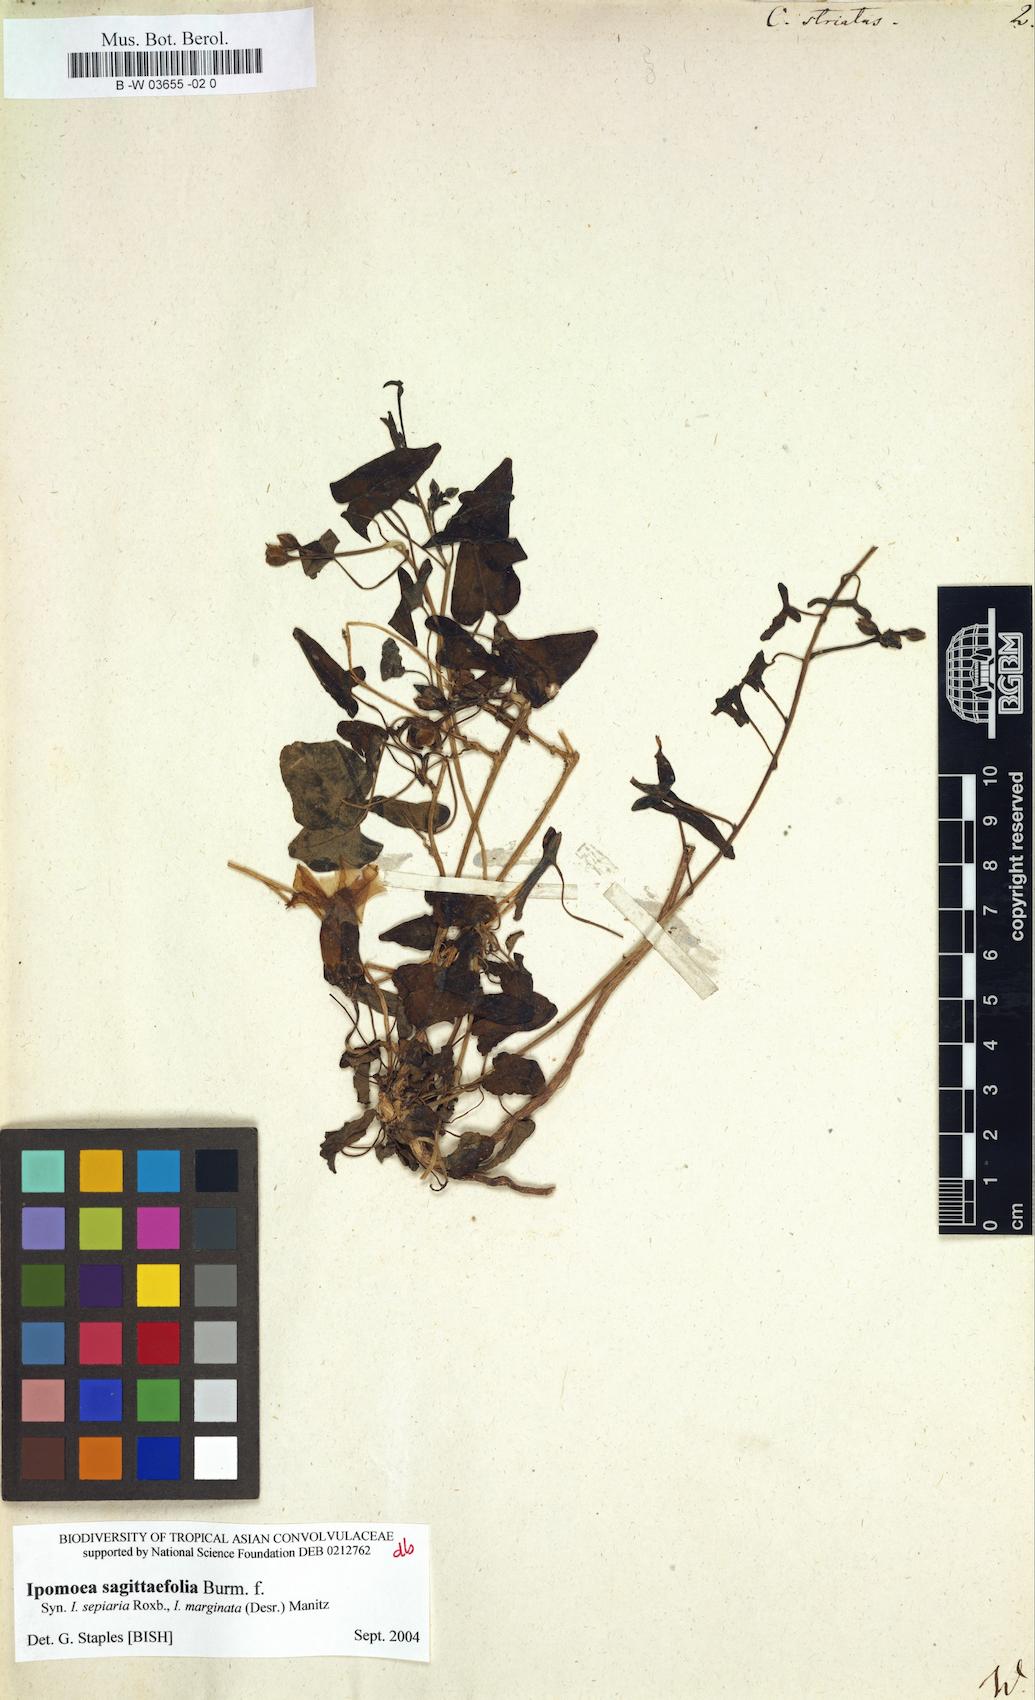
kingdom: Plantae
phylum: Tracheophyta
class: Magnoliopsida
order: Solanales
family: Convolvulaceae
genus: Merremia
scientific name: Merremia gemella
